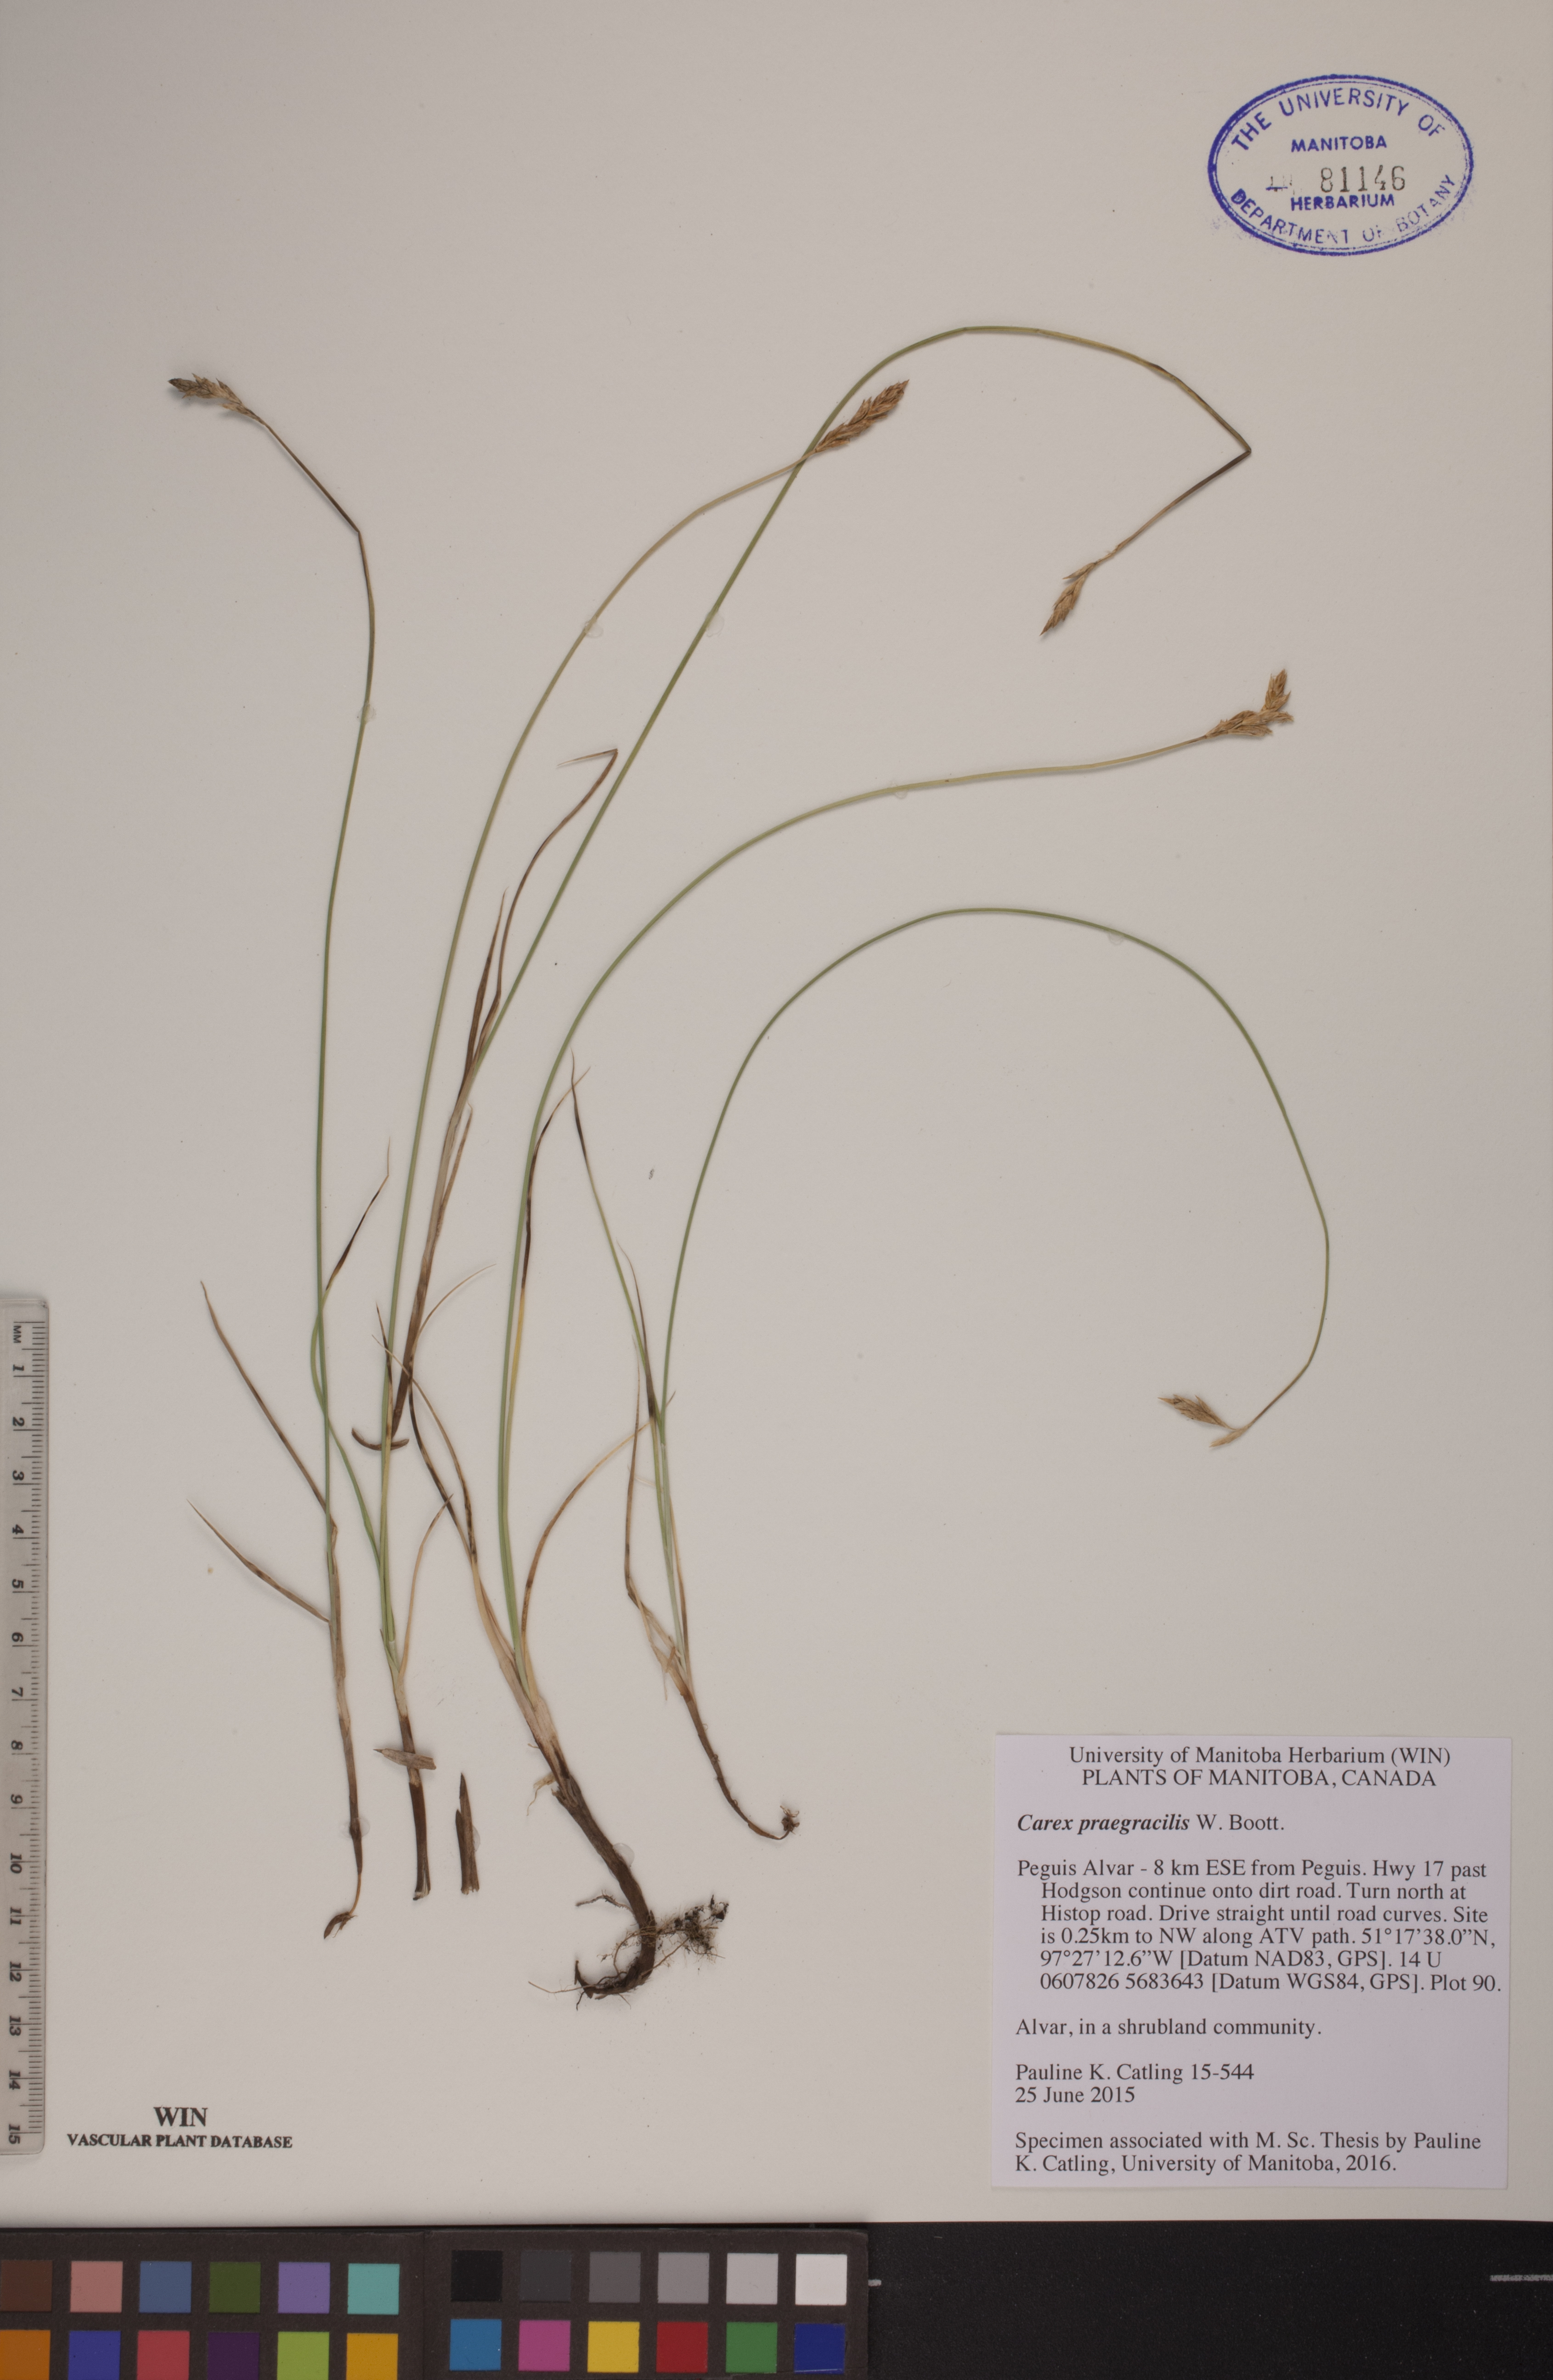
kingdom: Plantae
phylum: Tracheophyta
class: Liliopsida
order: Poales
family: Cyperaceae
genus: Carex
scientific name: Carex praegracilis
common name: Black creeper sedge
